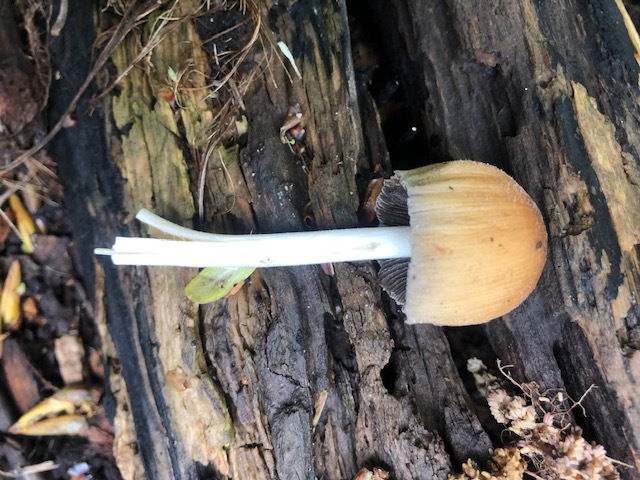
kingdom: Fungi
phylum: Basidiomycota
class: Agaricomycetes
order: Agaricales
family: Psathyrellaceae
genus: Coprinellus
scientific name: Coprinellus micaceus
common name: glimmer-blækhat
